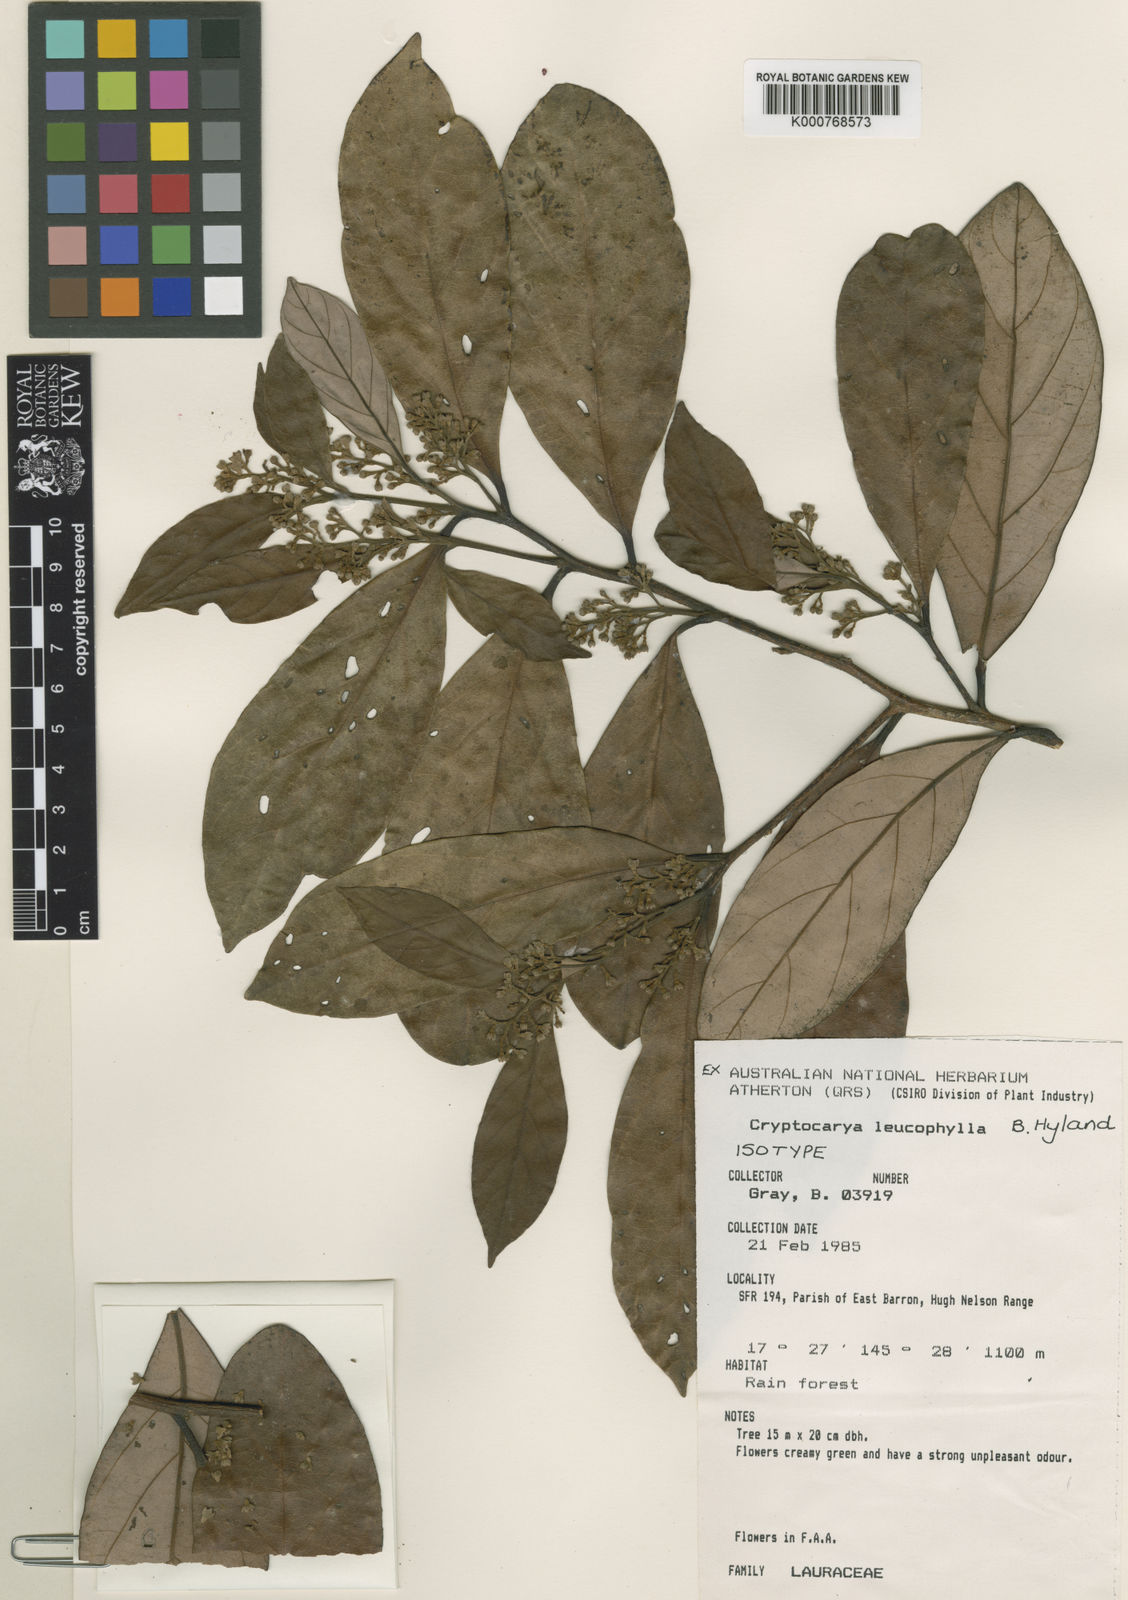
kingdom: Plantae
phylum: Tracheophyta
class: Magnoliopsida
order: Laurales
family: Lauraceae
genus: Cryptocarya
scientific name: Cryptocarya leucophylla
